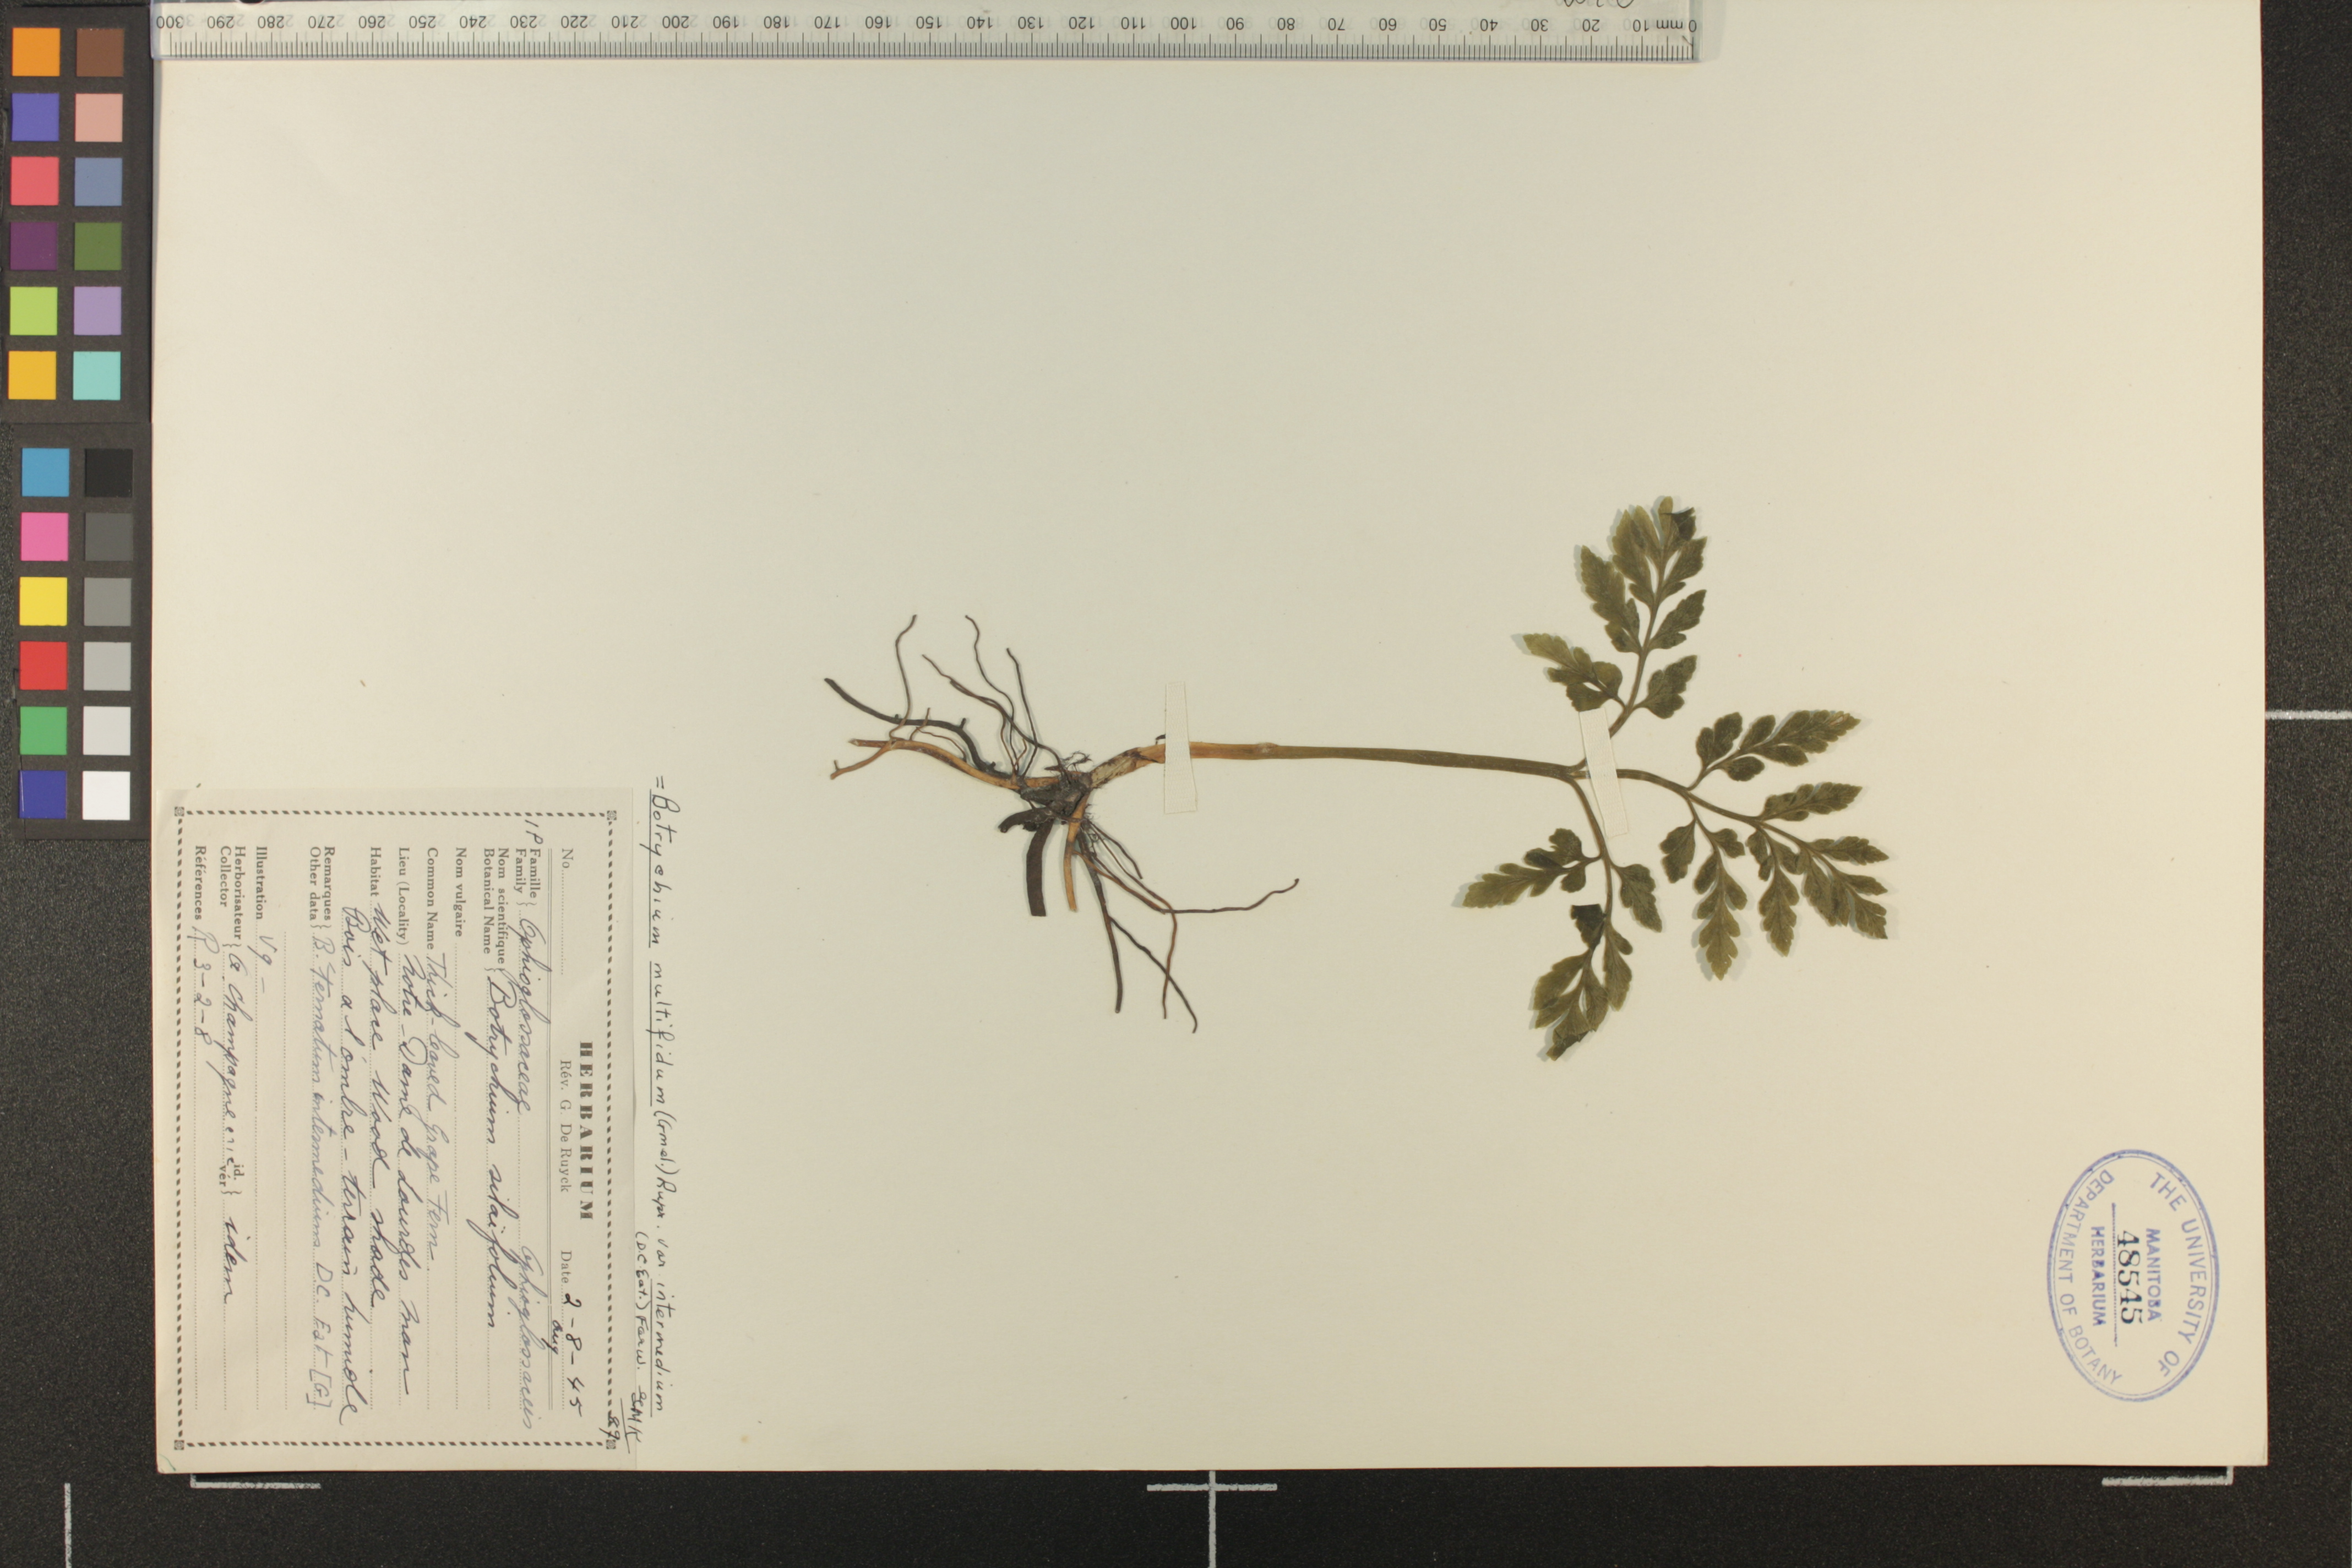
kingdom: Plantae
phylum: Tracheophyta
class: Polypodiopsida
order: Ophioglossales
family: Ophioglossaceae
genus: Sceptridium
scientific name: Sceptridium multifidum
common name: Leathery grape fern
